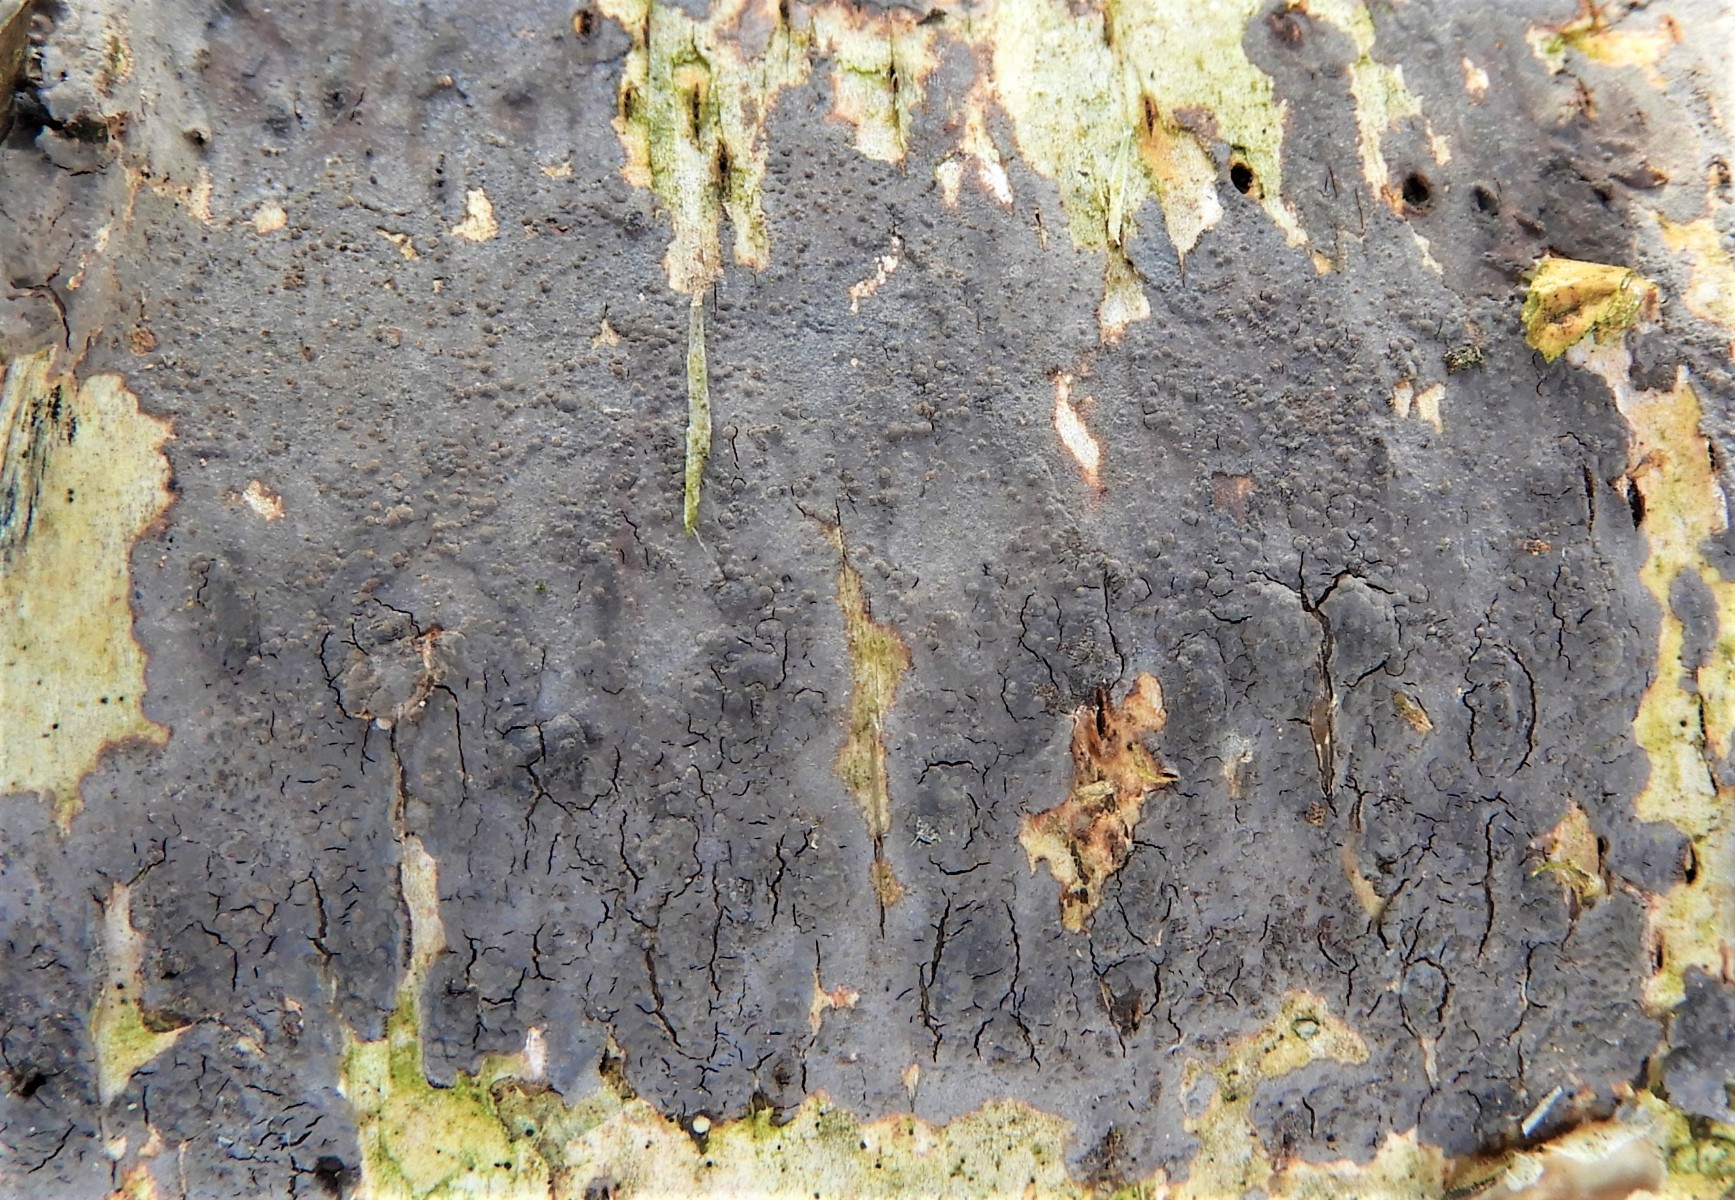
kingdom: Fungi
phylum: Basidiomycota
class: Agaricomycetes
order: Russulales
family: Peniophoraceae
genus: Peniophora
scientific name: Peniophora
